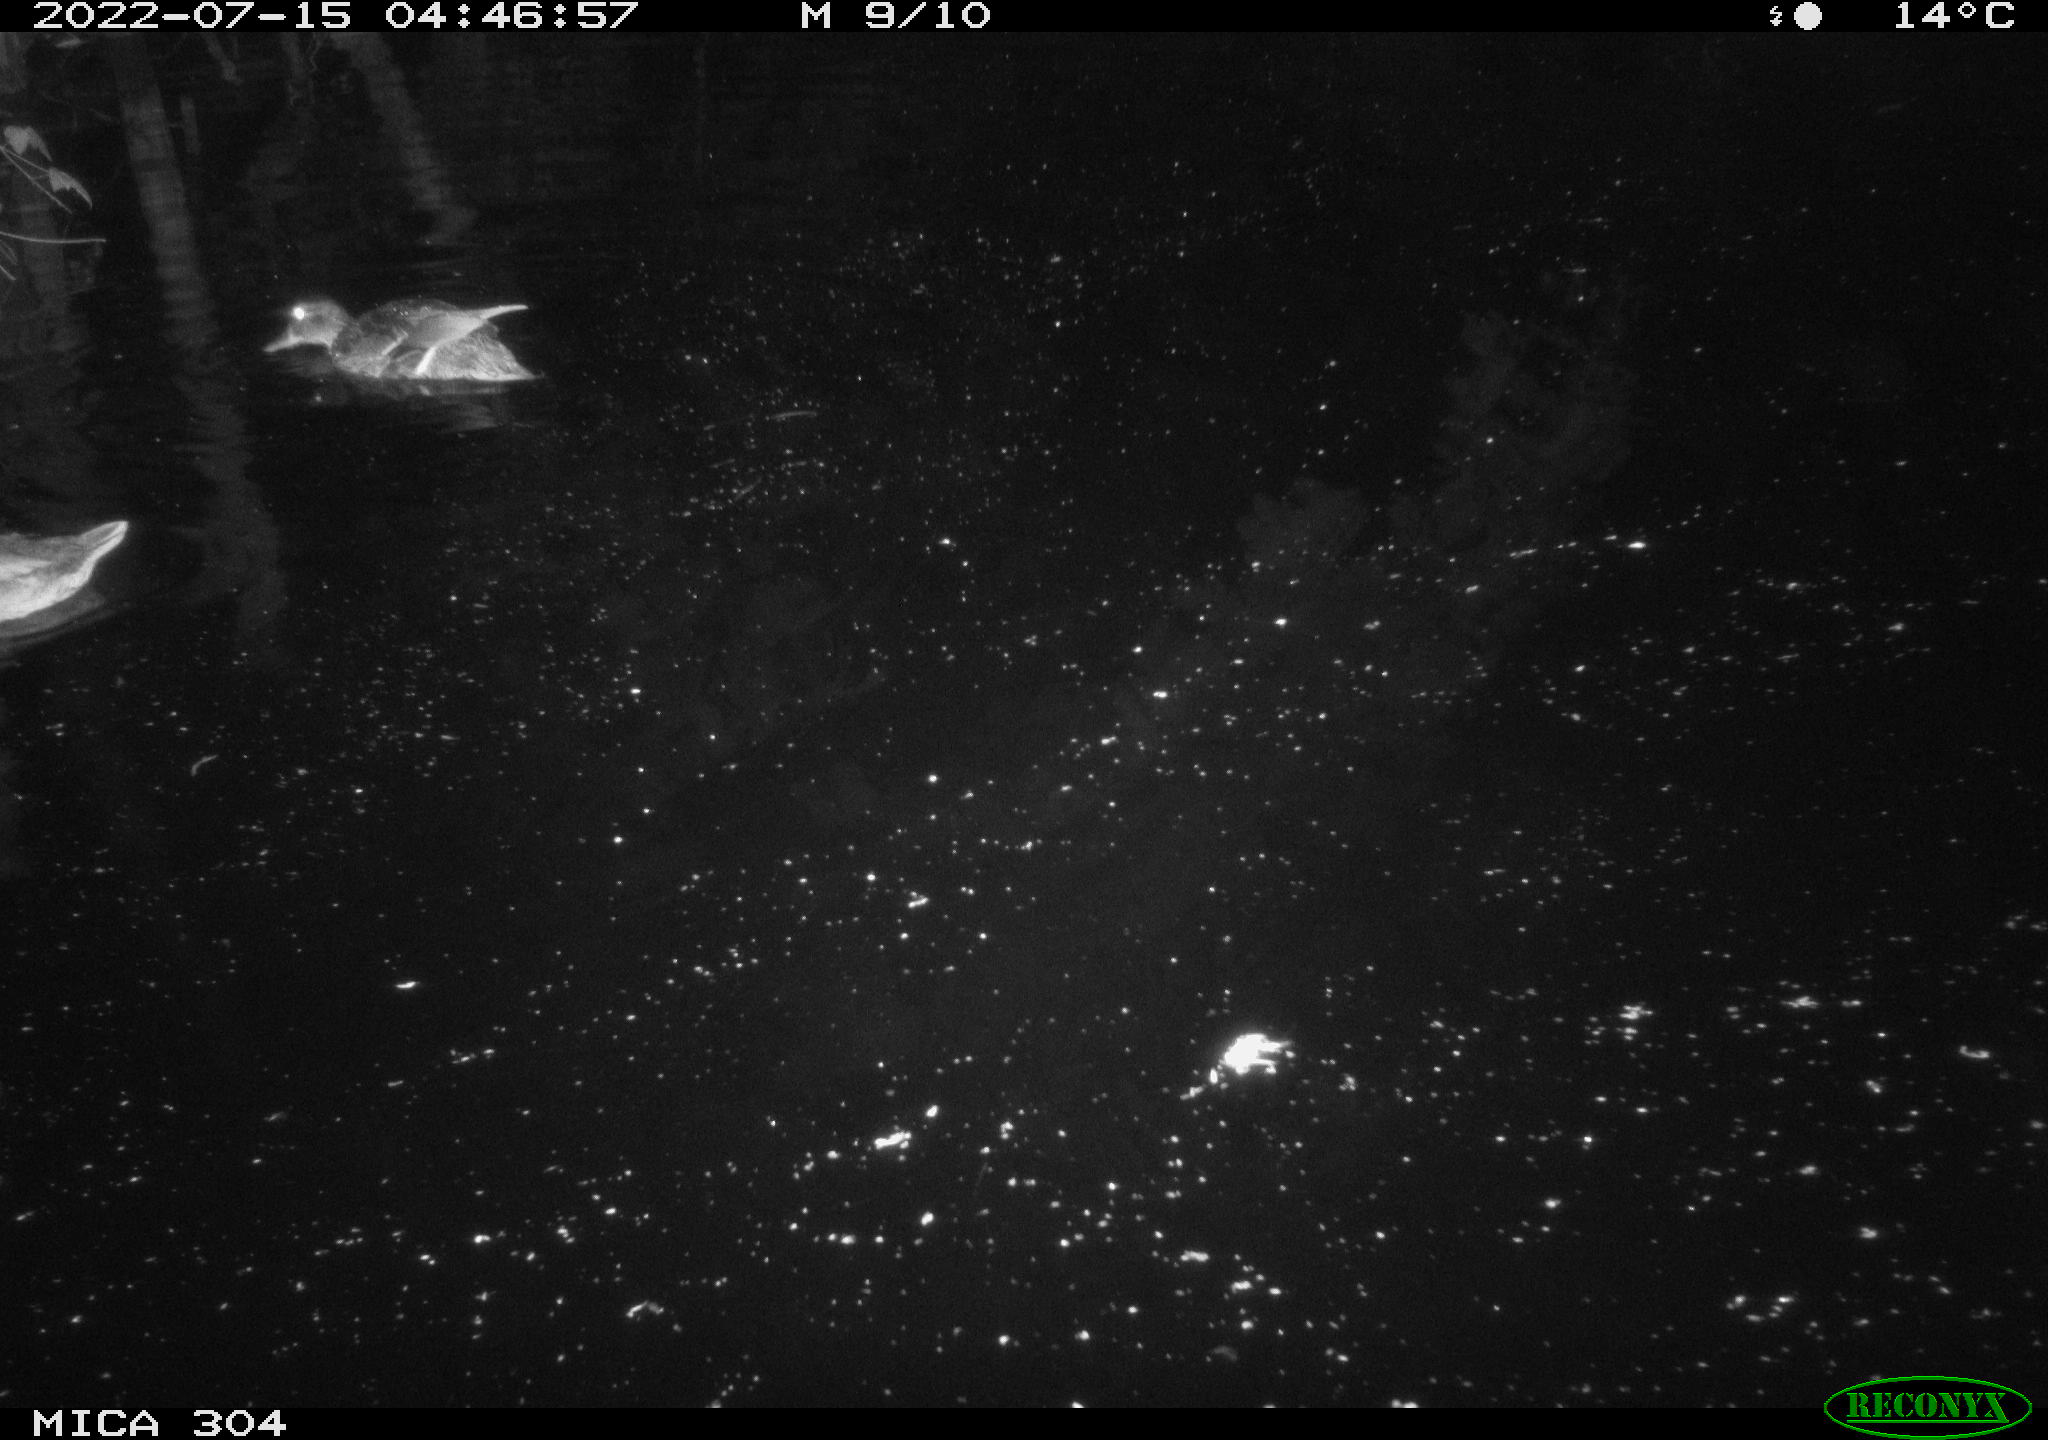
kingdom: Animalia
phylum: Chordata
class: Aves
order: Anseriformes
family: Anatidae
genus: Anas
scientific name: Anas platyrhynchos
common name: Mallard
